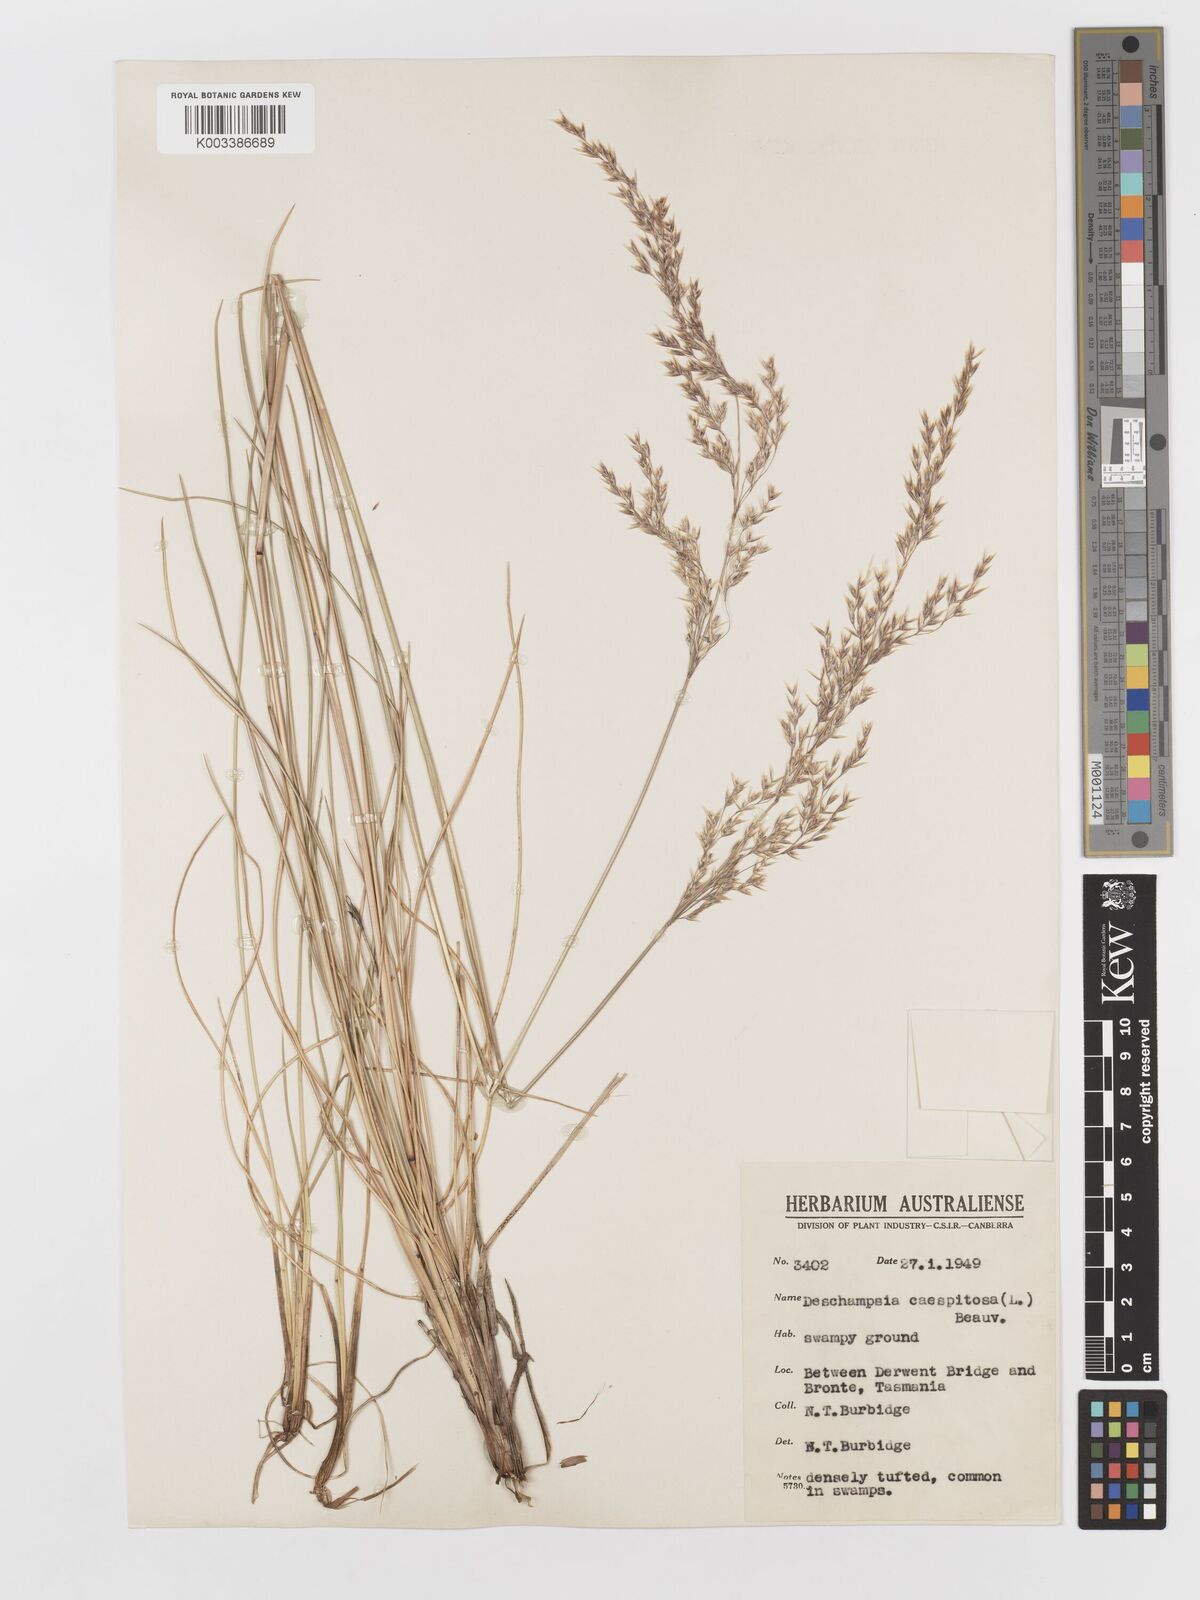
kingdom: Plantae
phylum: Tracheophyta
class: Liliopsida
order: Poales
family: Poaceae
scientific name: Poaceae
